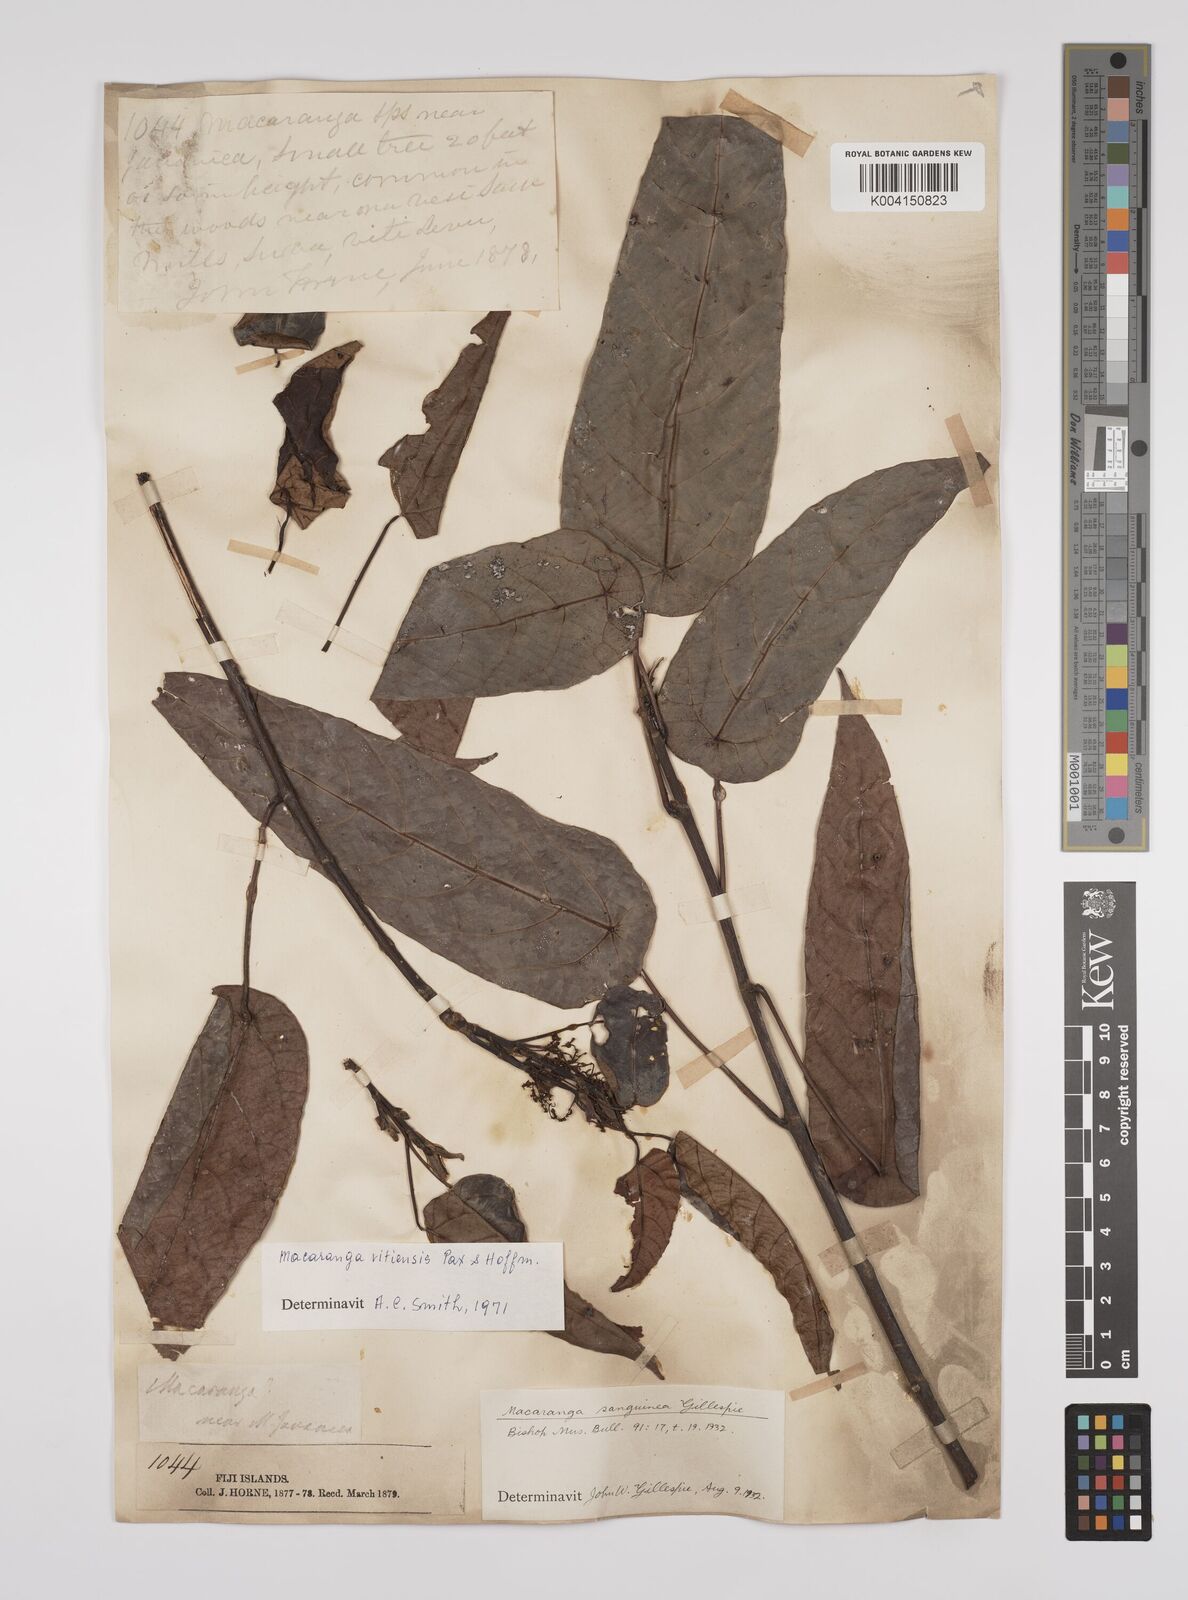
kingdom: Plantae
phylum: Tracheophyta
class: Magnoliopsida
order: Malpighiales
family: Euphorbiaceae
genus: Macaranga
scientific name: Macaranga vitiensis
